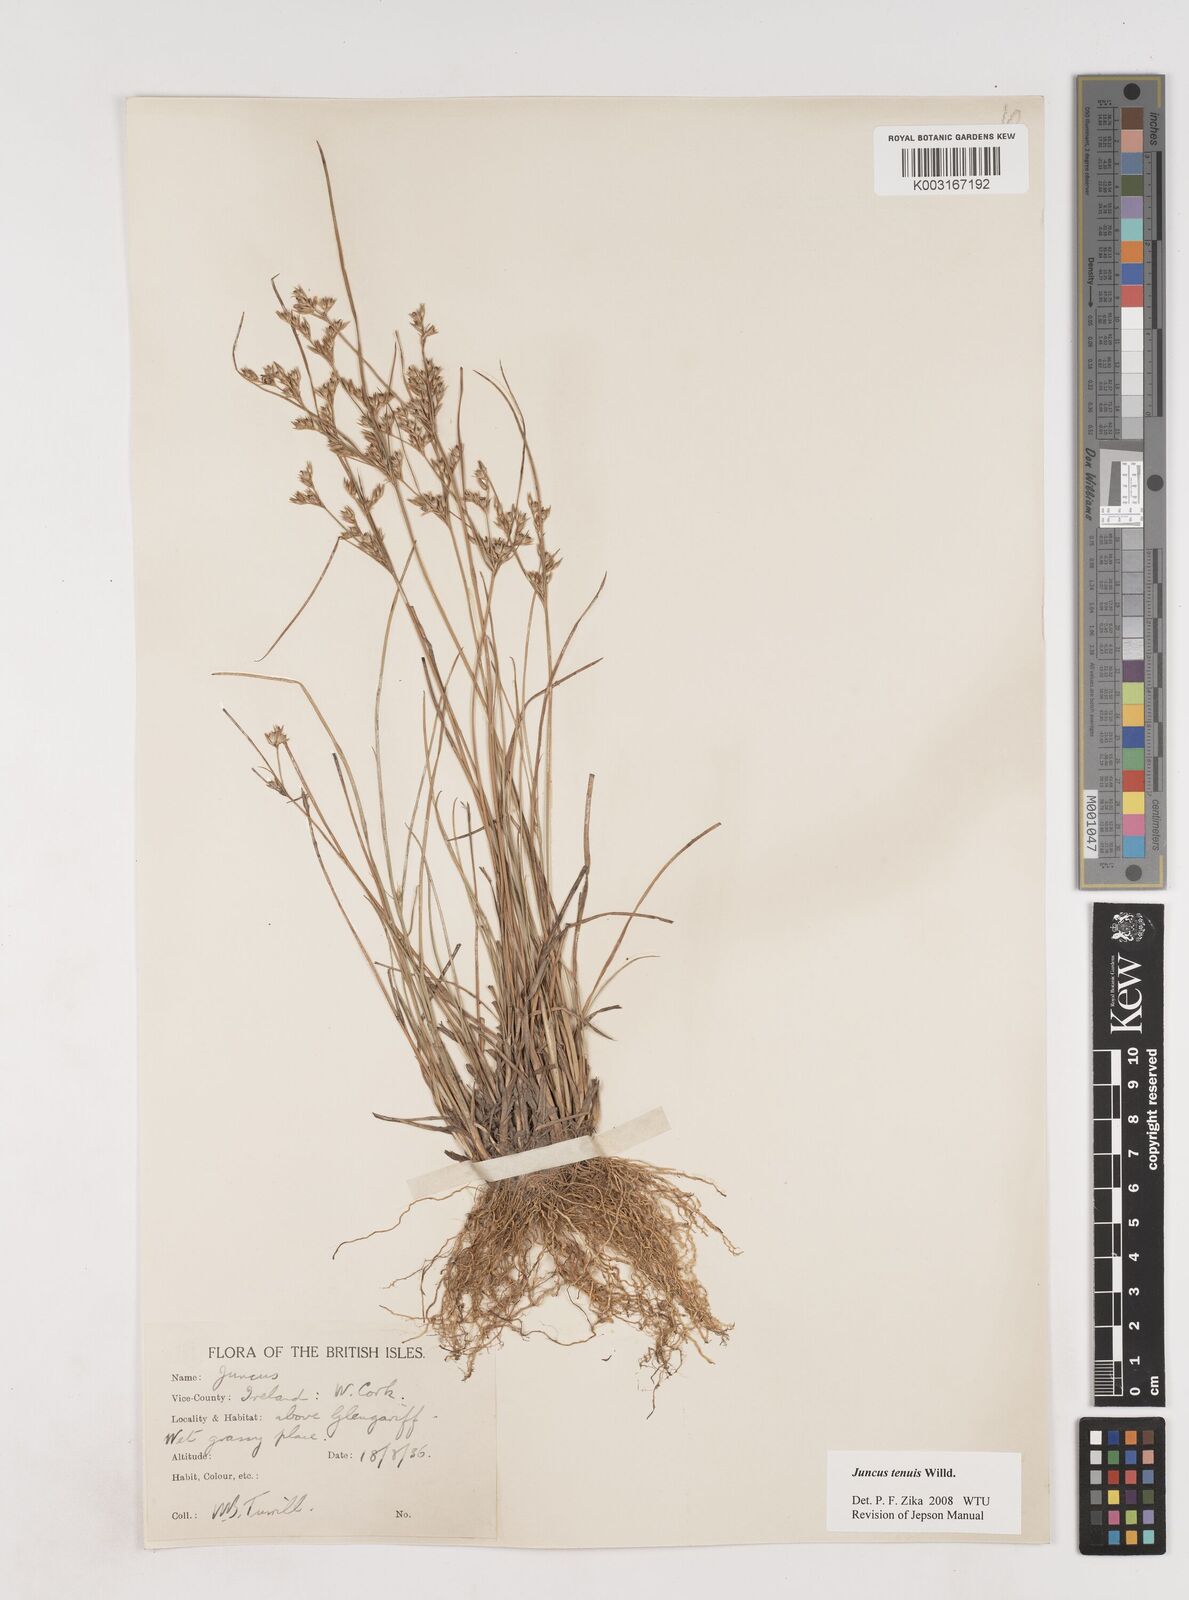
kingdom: Plantae
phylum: Tracheophyta
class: Liliopsida
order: Poales
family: Juncaceae
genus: Juncus
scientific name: Juncus tenuis
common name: Slender rush
